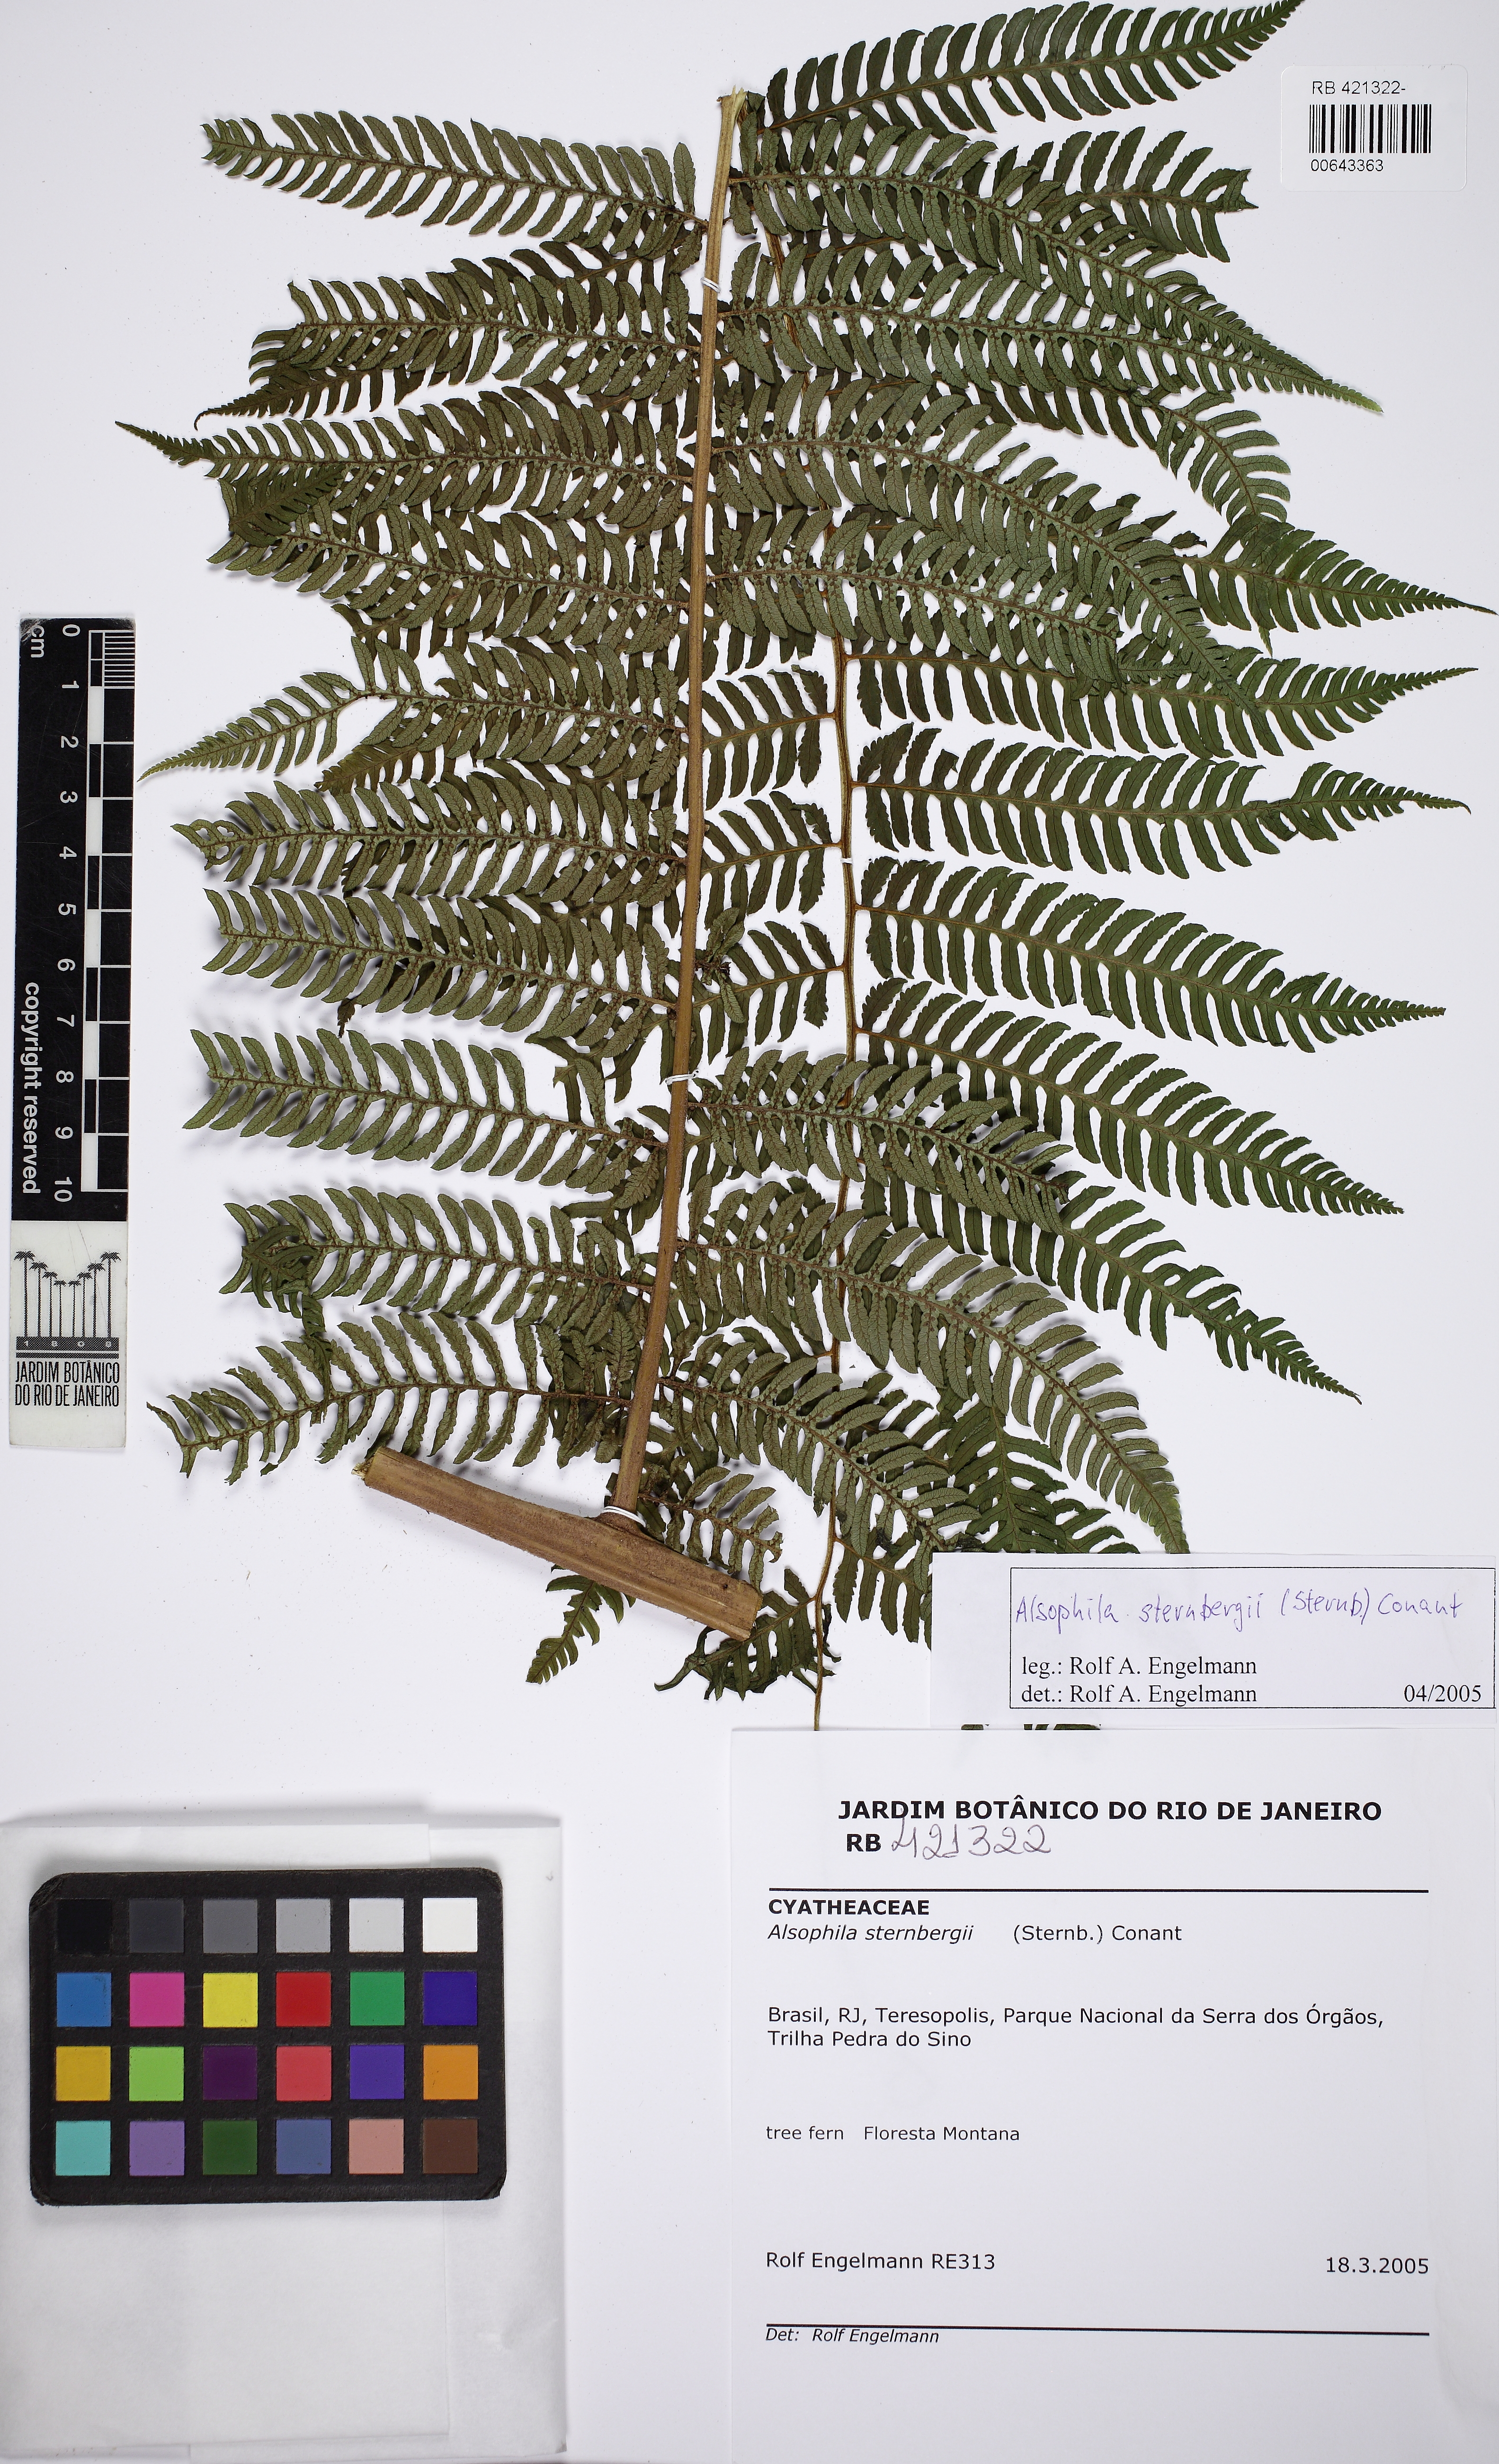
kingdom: Plantae
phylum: Tracheophyta
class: Polypodiopsida
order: Cyatheales
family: Cyatheaceae
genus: Alsophila
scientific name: Alsophila sternbergii
